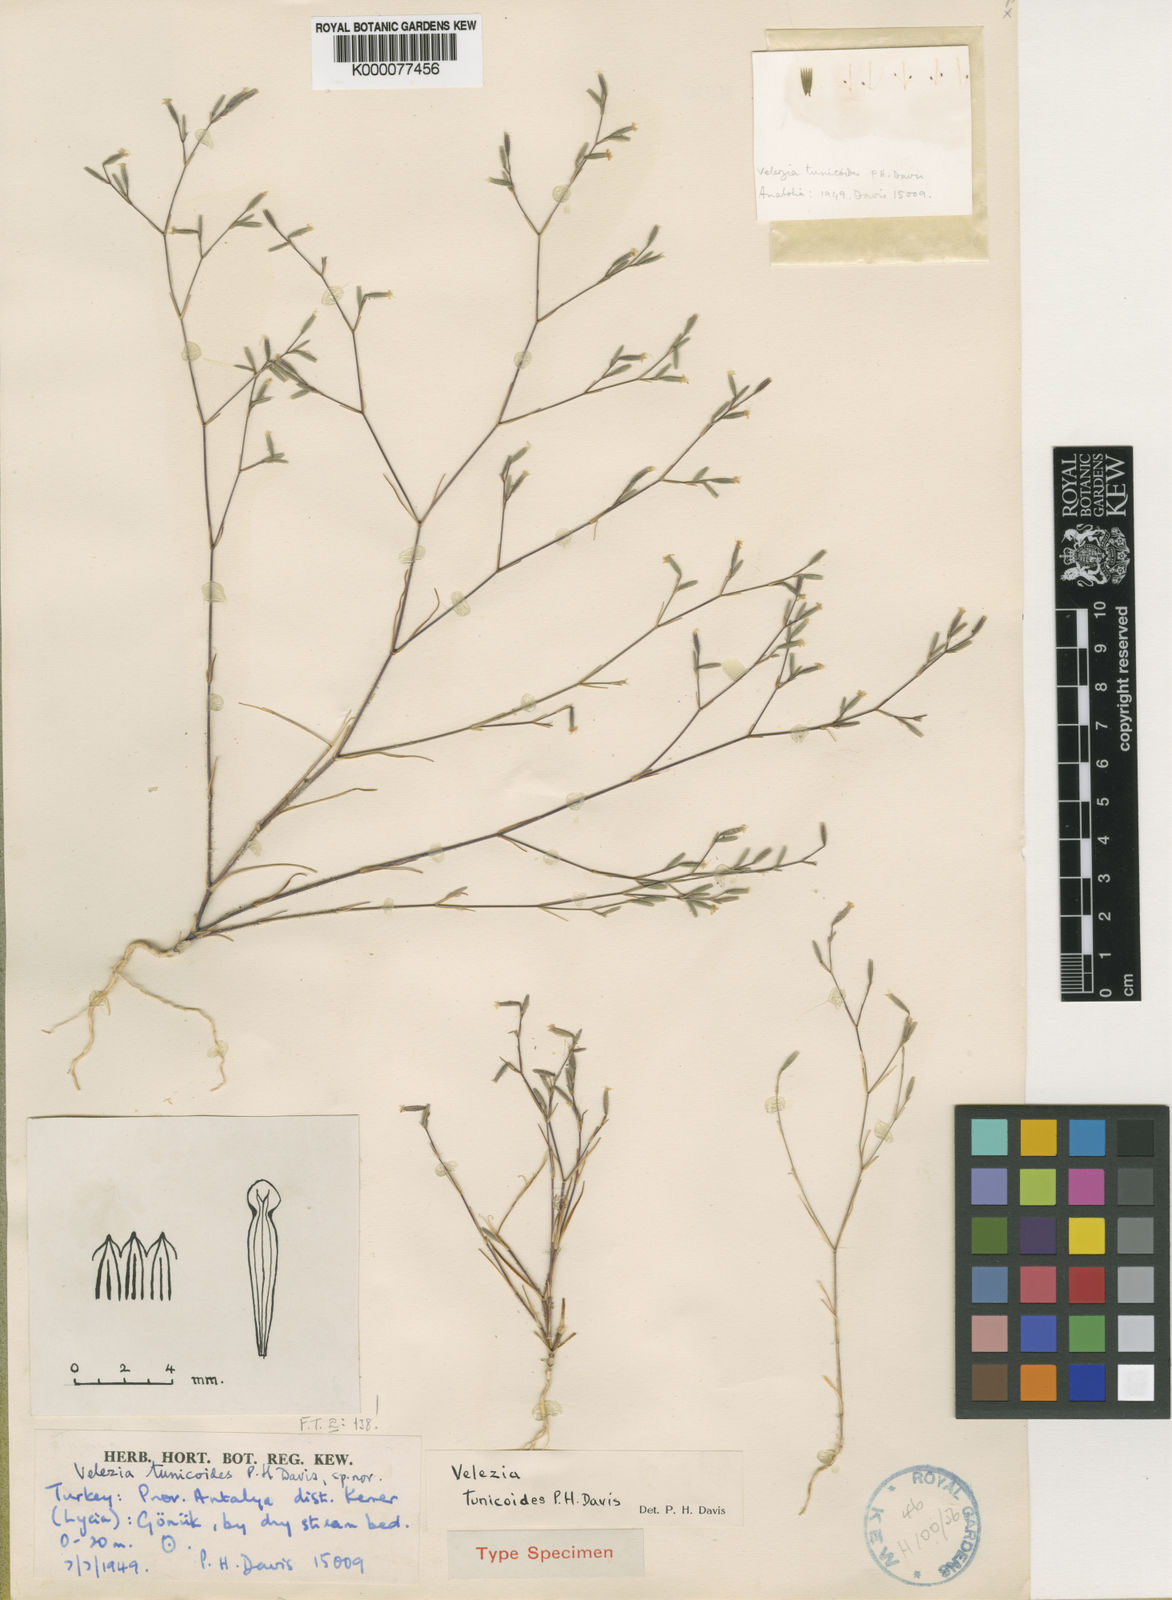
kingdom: Plantae
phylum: Tracheophyta
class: Magnoliopsida
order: Caryophyllales
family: Caryophyllaceae
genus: Dianthus
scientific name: Dianthus antalyensis
